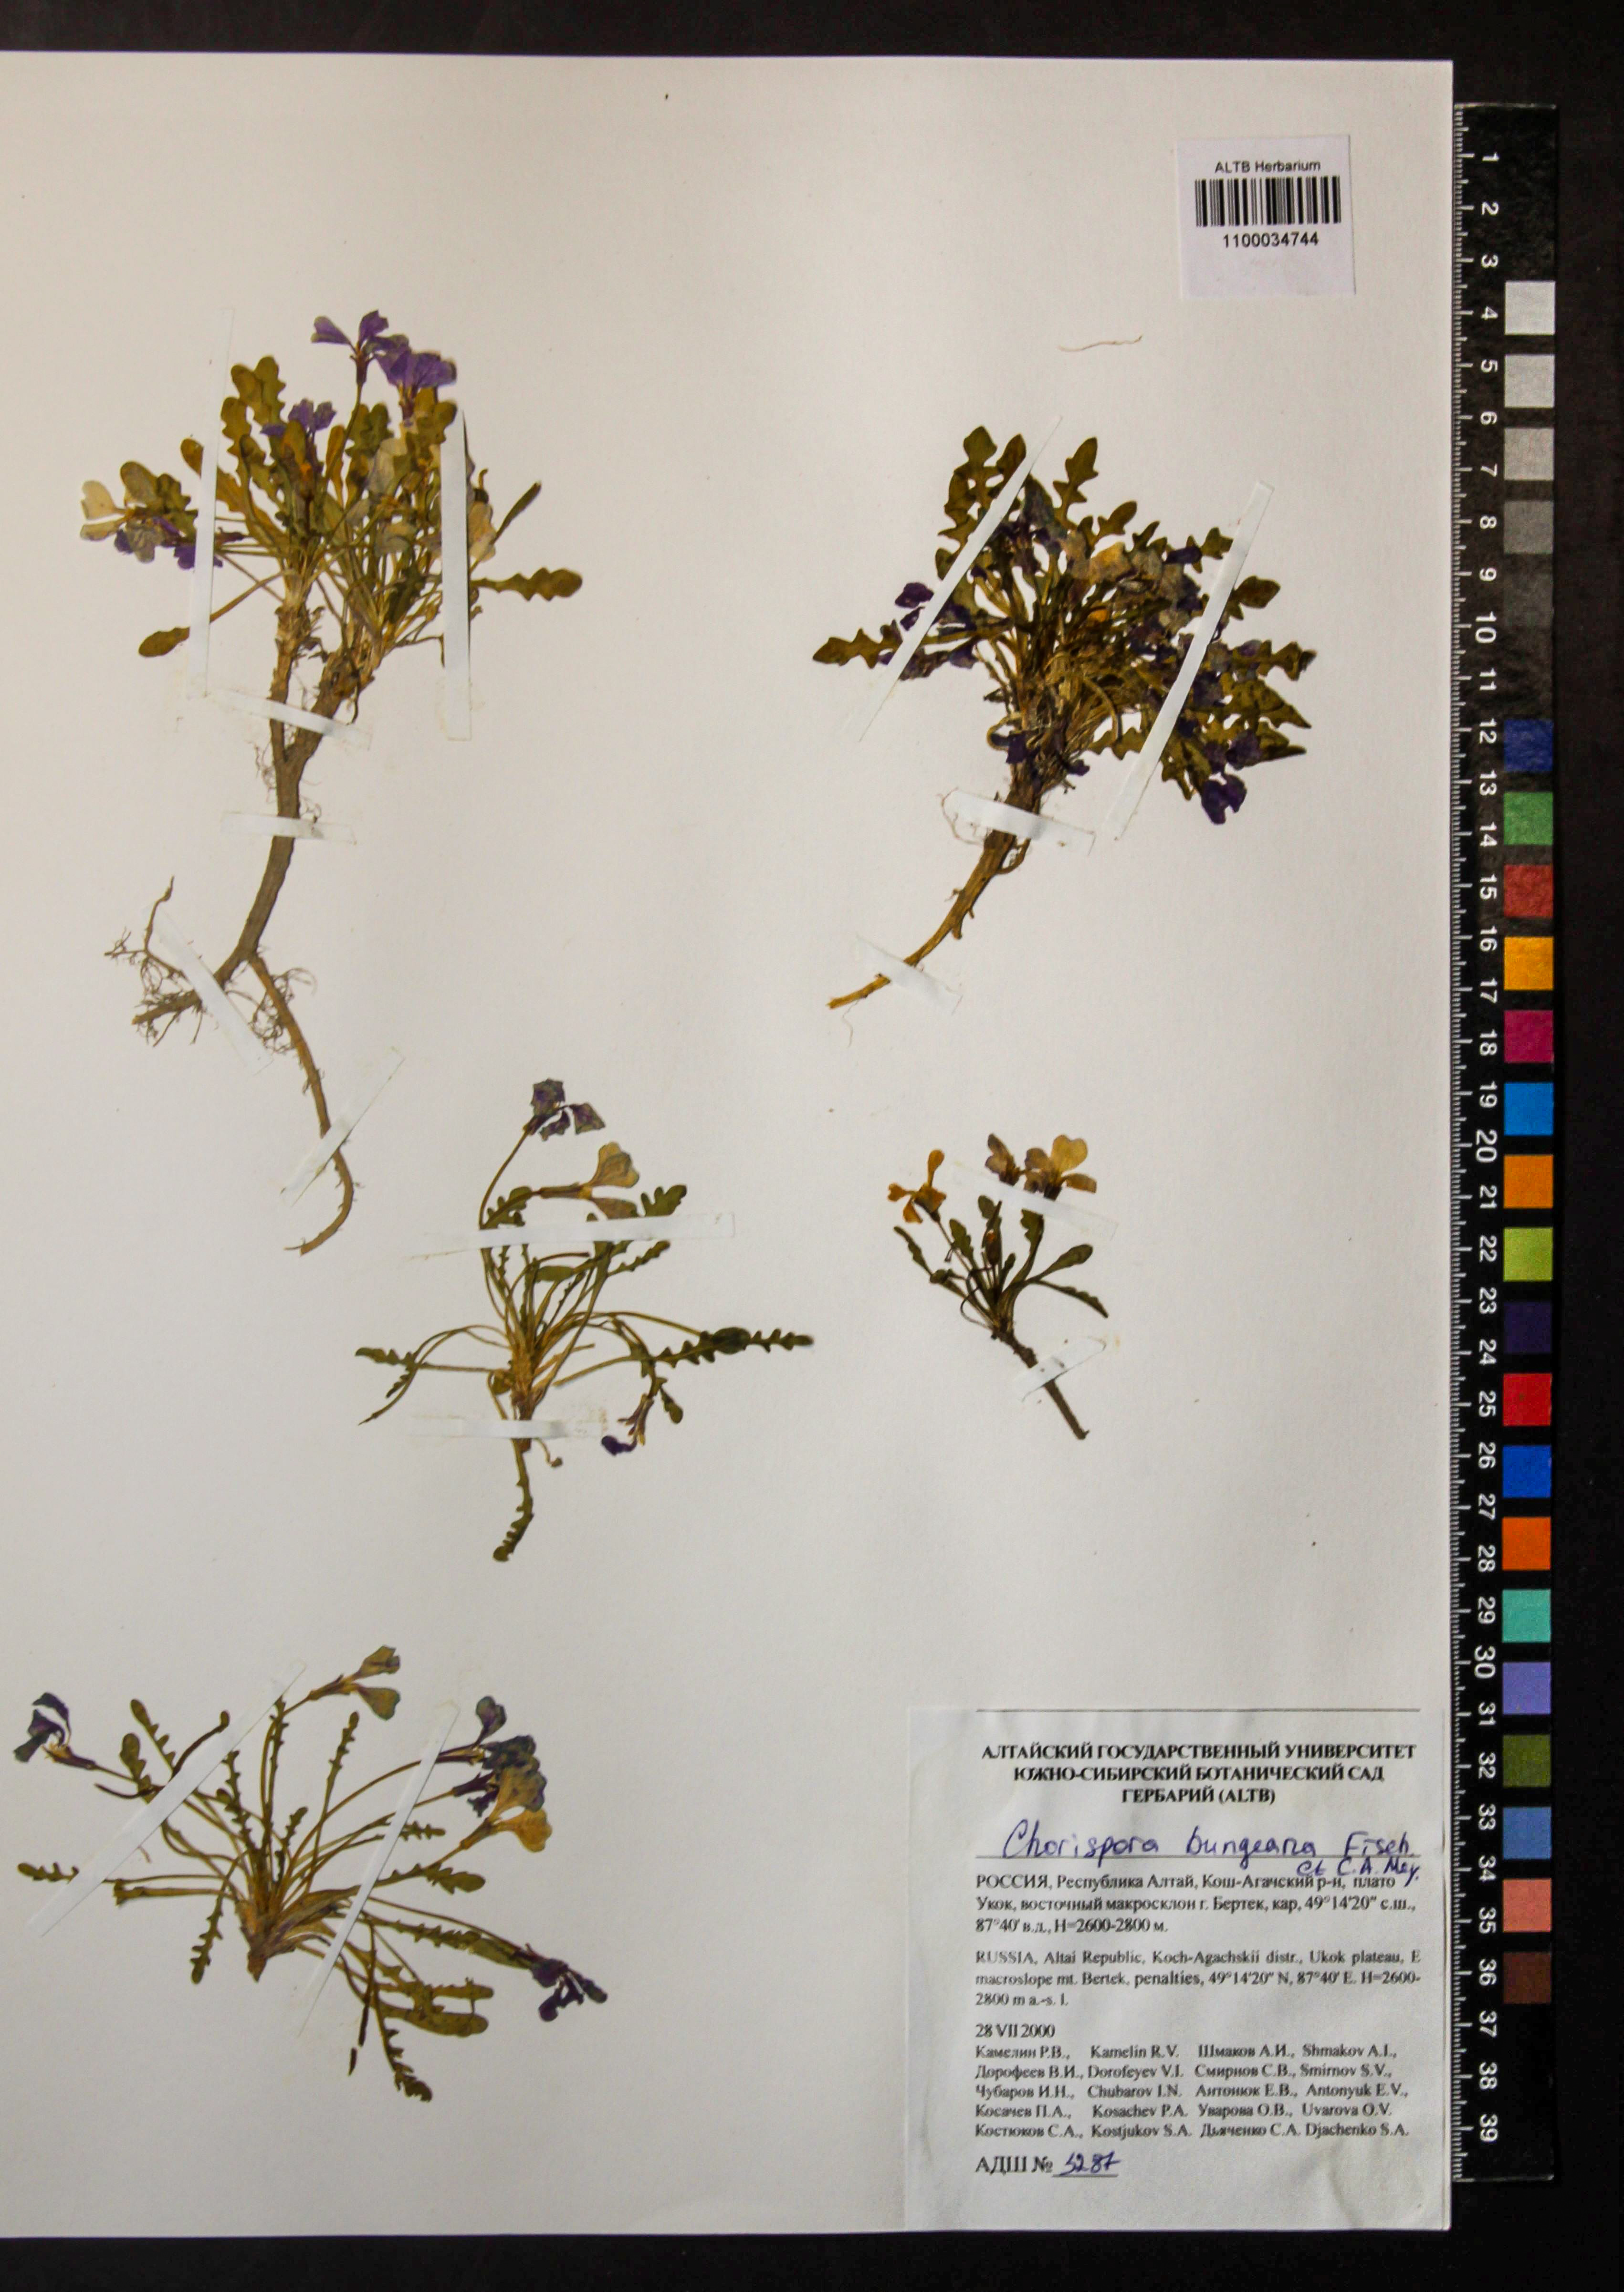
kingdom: Plantae
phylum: Tracheophyta
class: Magnoliopsida
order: Brassicales
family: Brassicaceae
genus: Chorispora
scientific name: Chorispora bungeana
